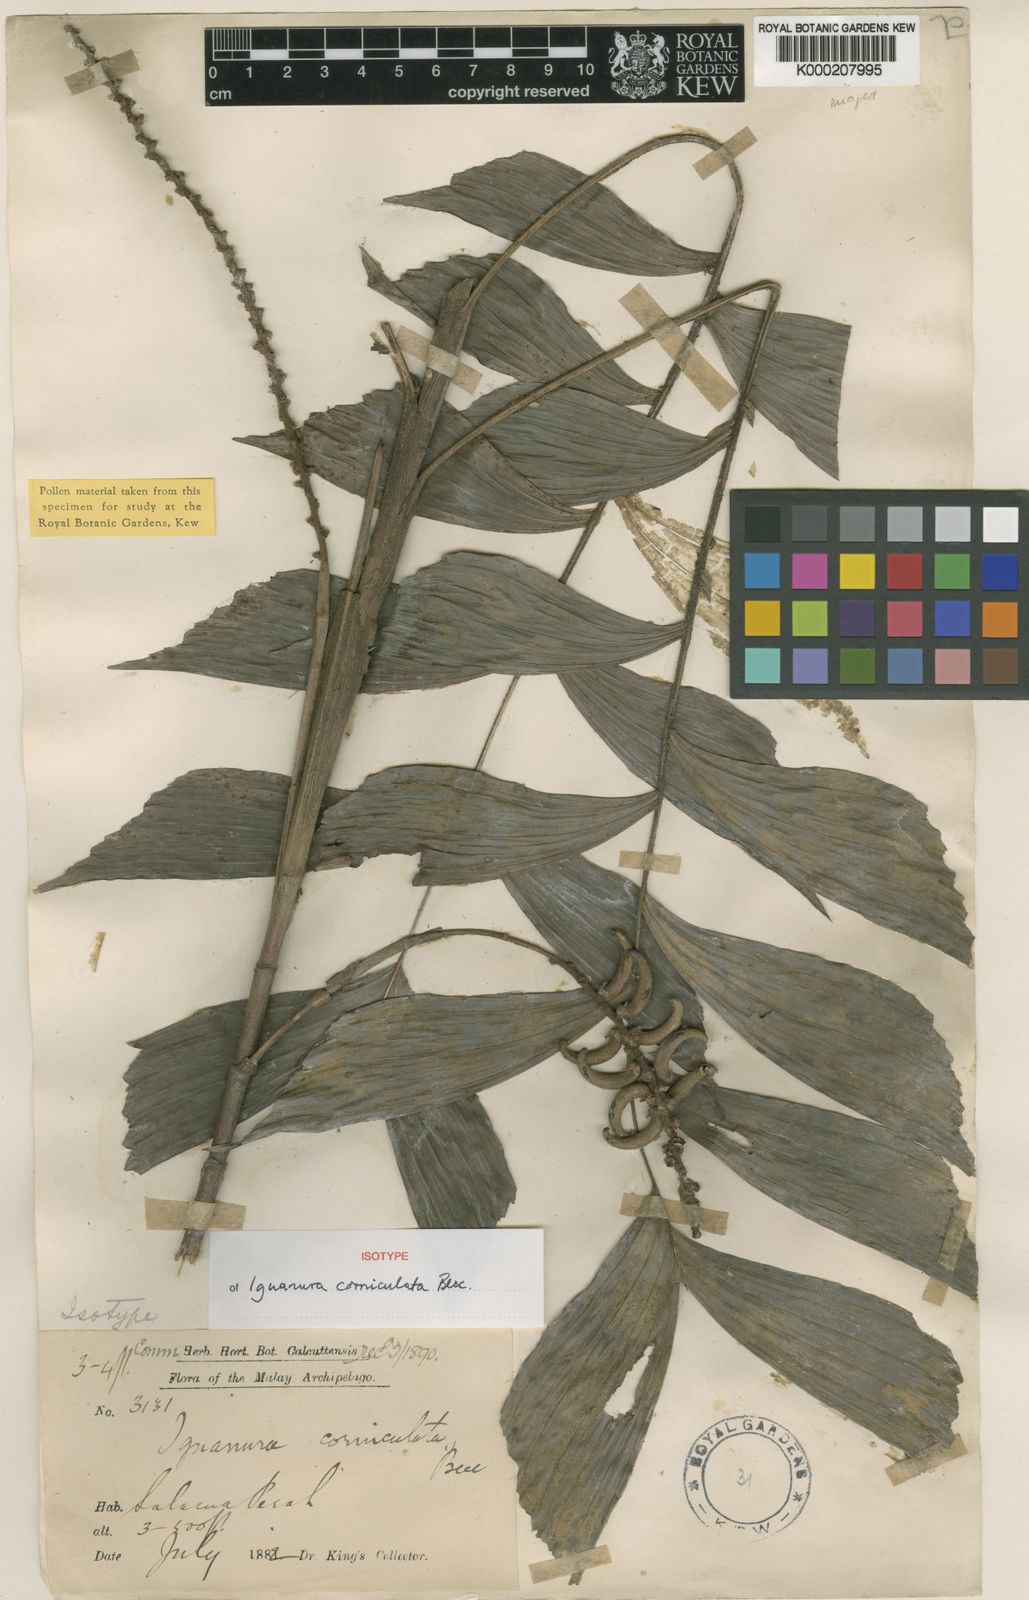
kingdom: Plantae
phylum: Tracheophyta
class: Liliopsida
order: Arecales
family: Arecaceae
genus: Iguanura
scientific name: Iguanura corniculata
